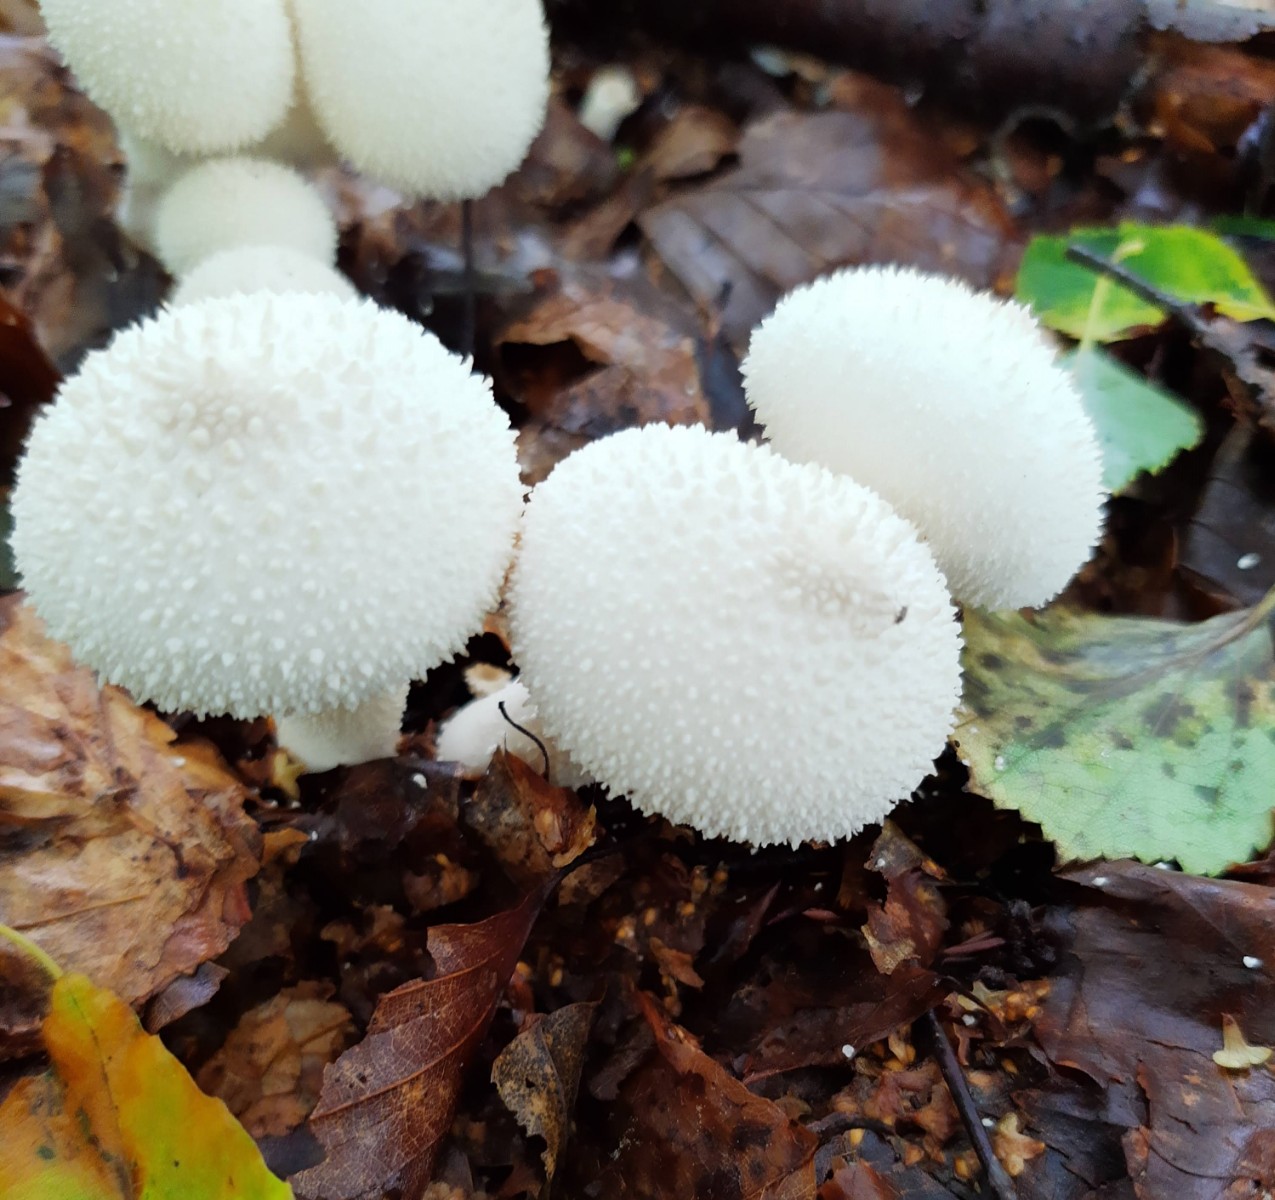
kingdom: Fungi
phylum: Basidiomycota
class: Agaricomycetes
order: Agaricales
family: Lycoperdaceae
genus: Lycoperdon
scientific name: Lycoperdon perlatum
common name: krystal-støvbold
